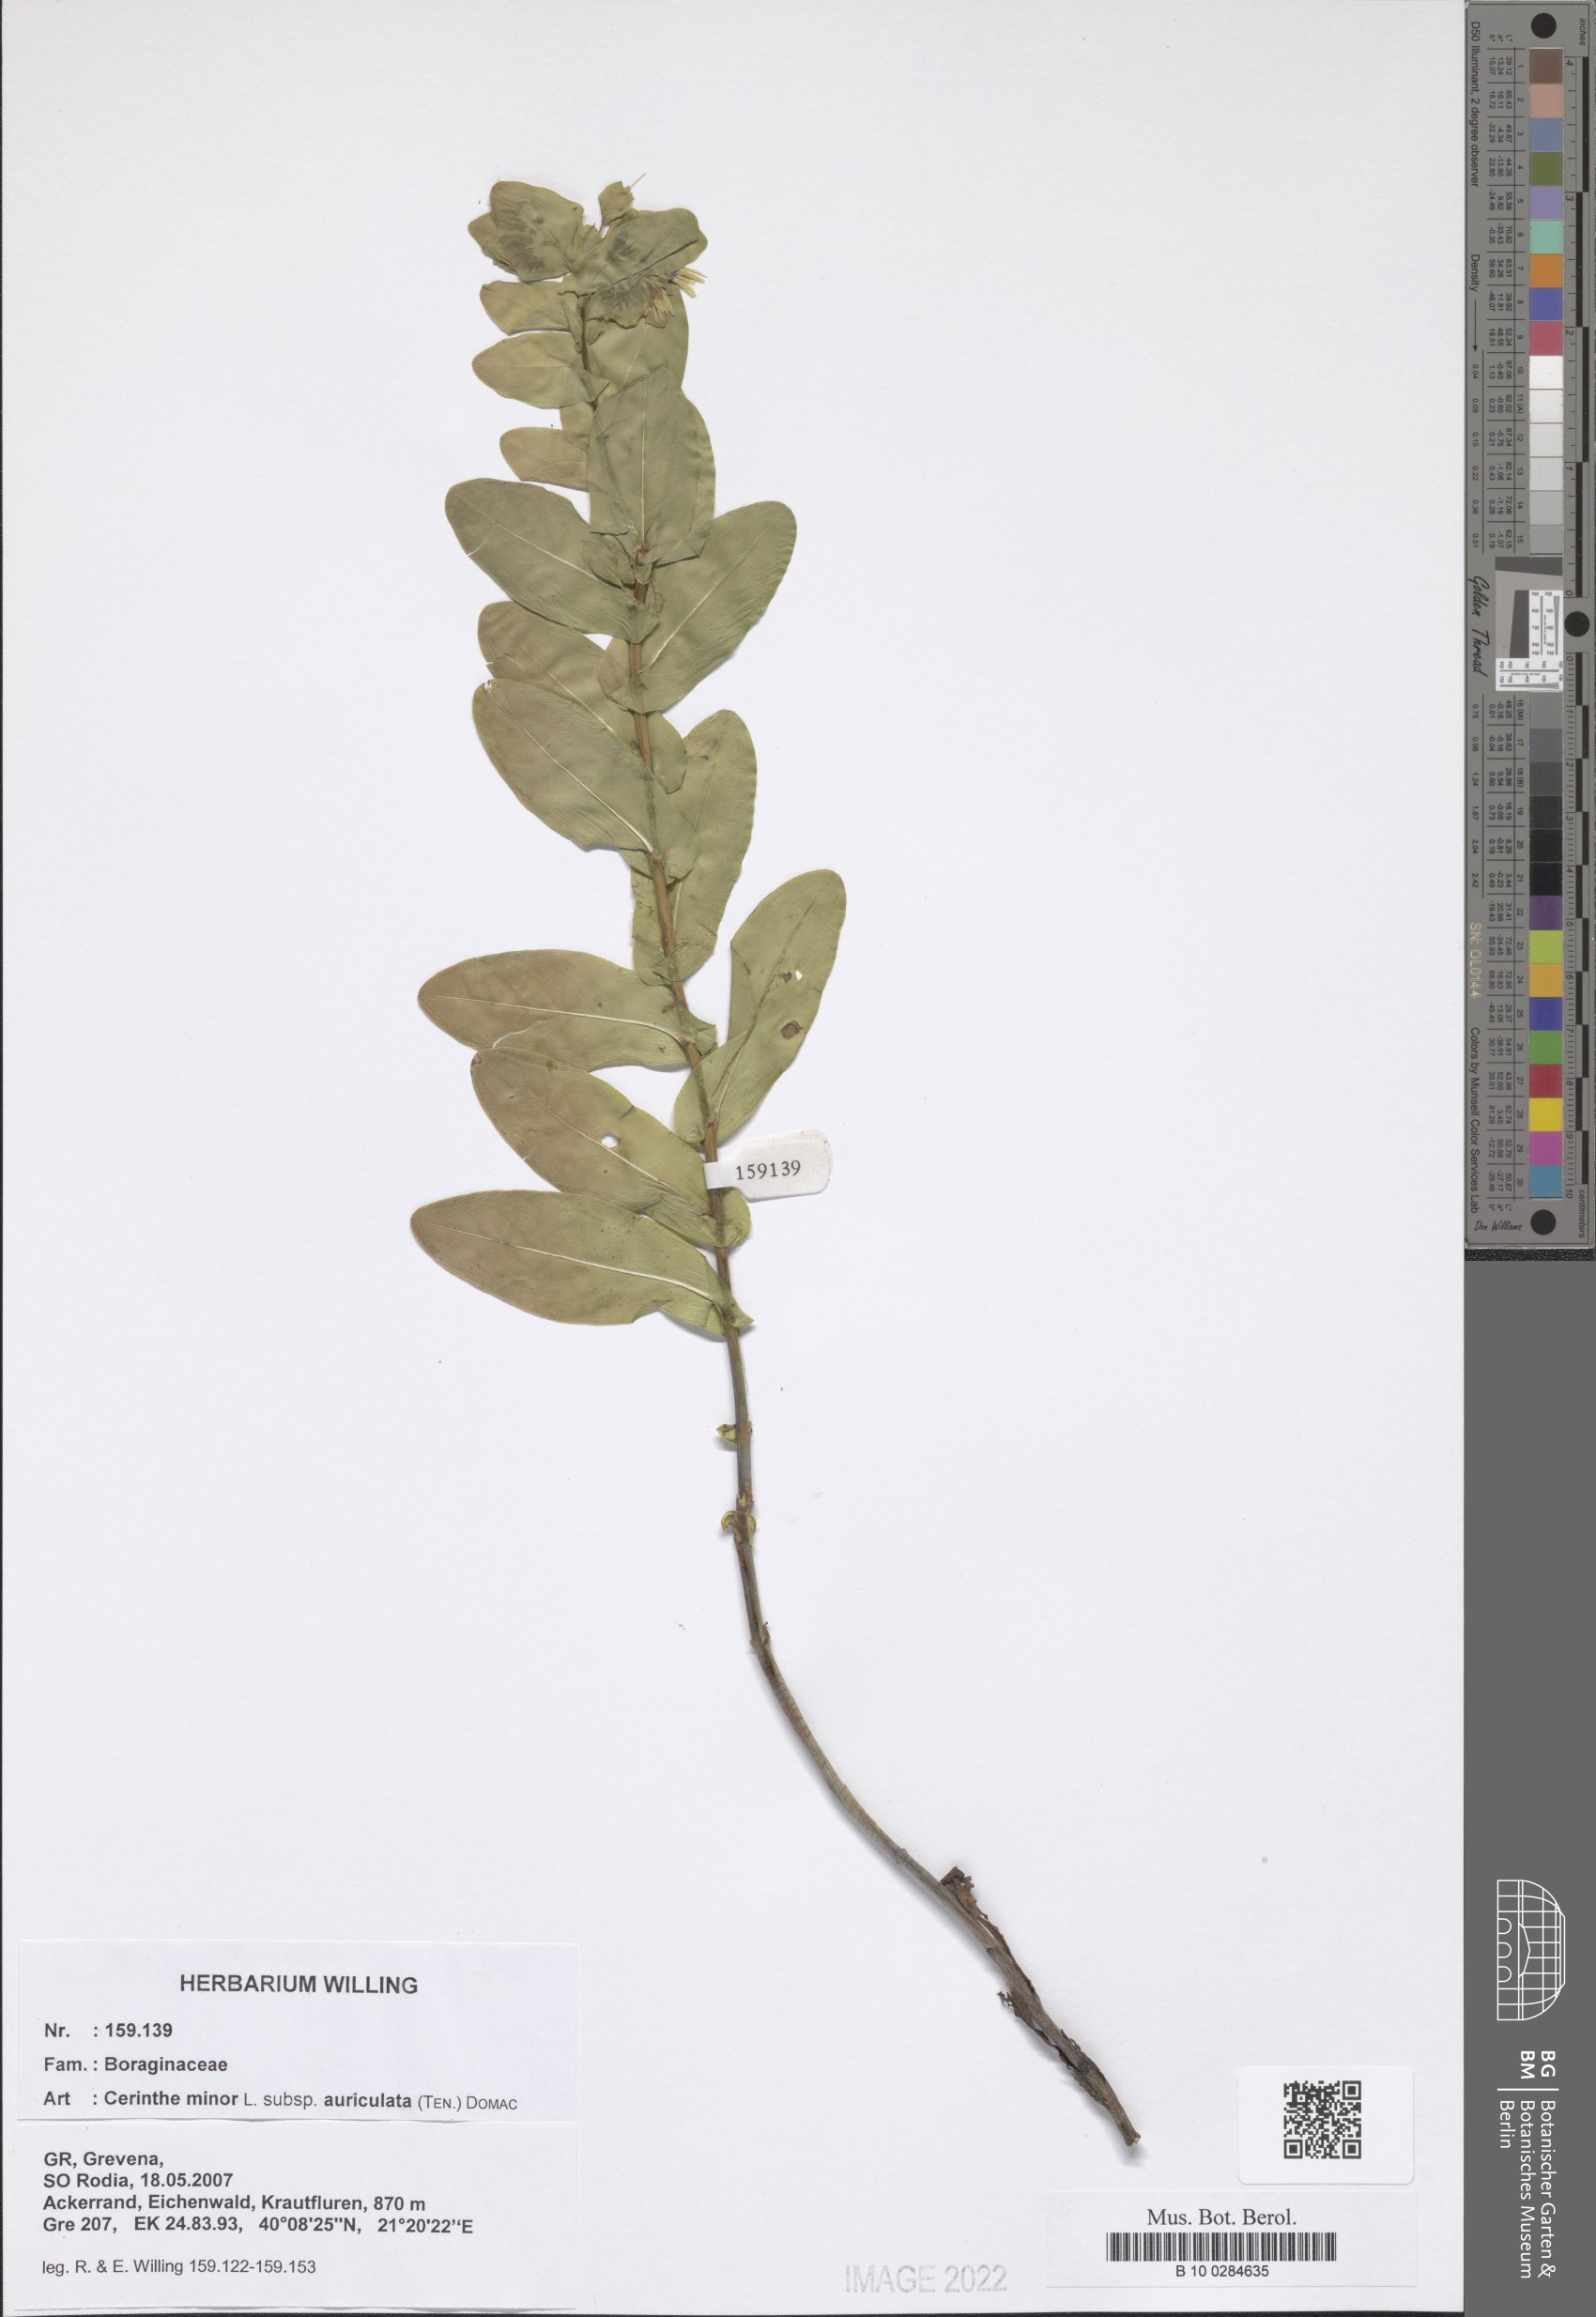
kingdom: Plantae
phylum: Tracheophyta
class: Magnoliopsida
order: Boraginales
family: Boraginaceae
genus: Cerinthe
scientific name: Cerinthe minor
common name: Lesser honeywort
